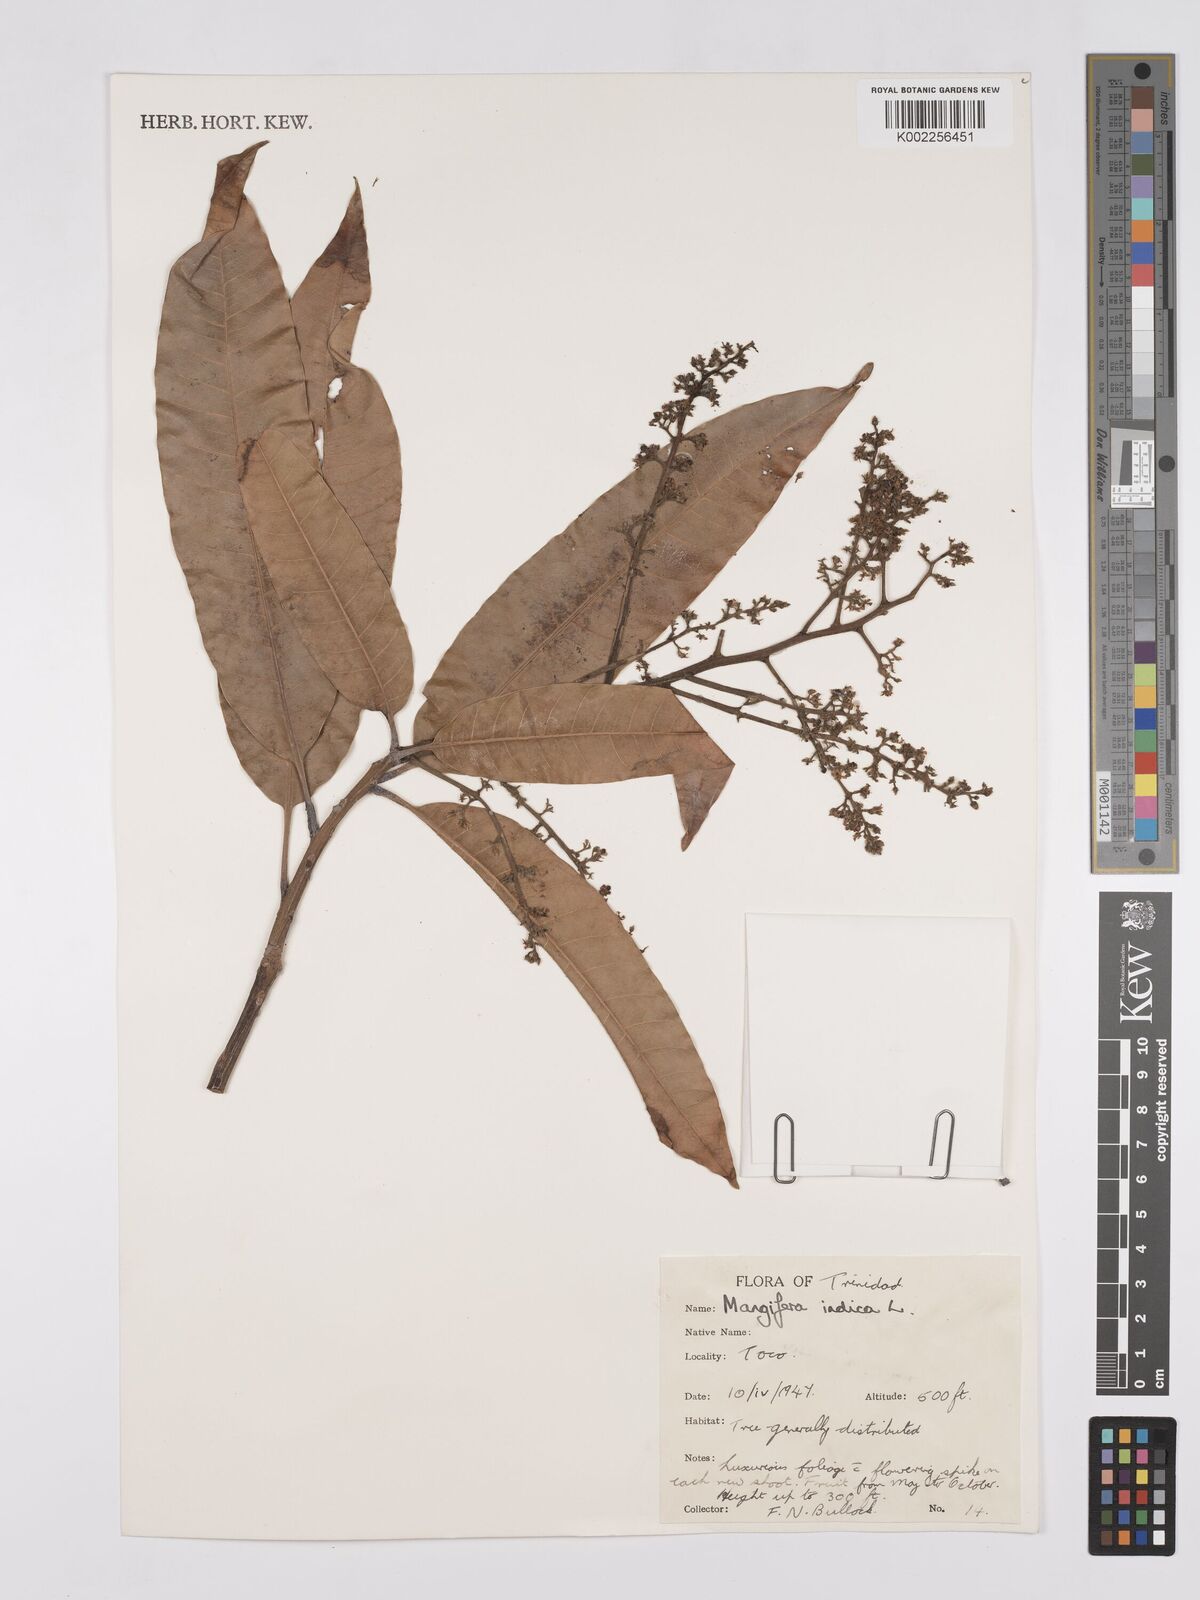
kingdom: Plantae
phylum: Tracheophyta
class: Magnoliopsida
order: Sapindales
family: Anacardiaceae
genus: Mangifera
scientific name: Mangifera indica
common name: Mango
